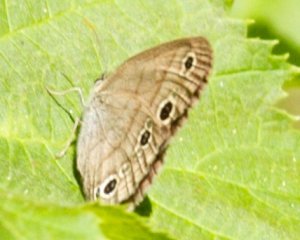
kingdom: Animalia
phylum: Arthropoda
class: Insecta
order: Lepidoptera
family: Nymphalidae
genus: Euptychia
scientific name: Euptychia cymela
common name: Little Wood Satyr
